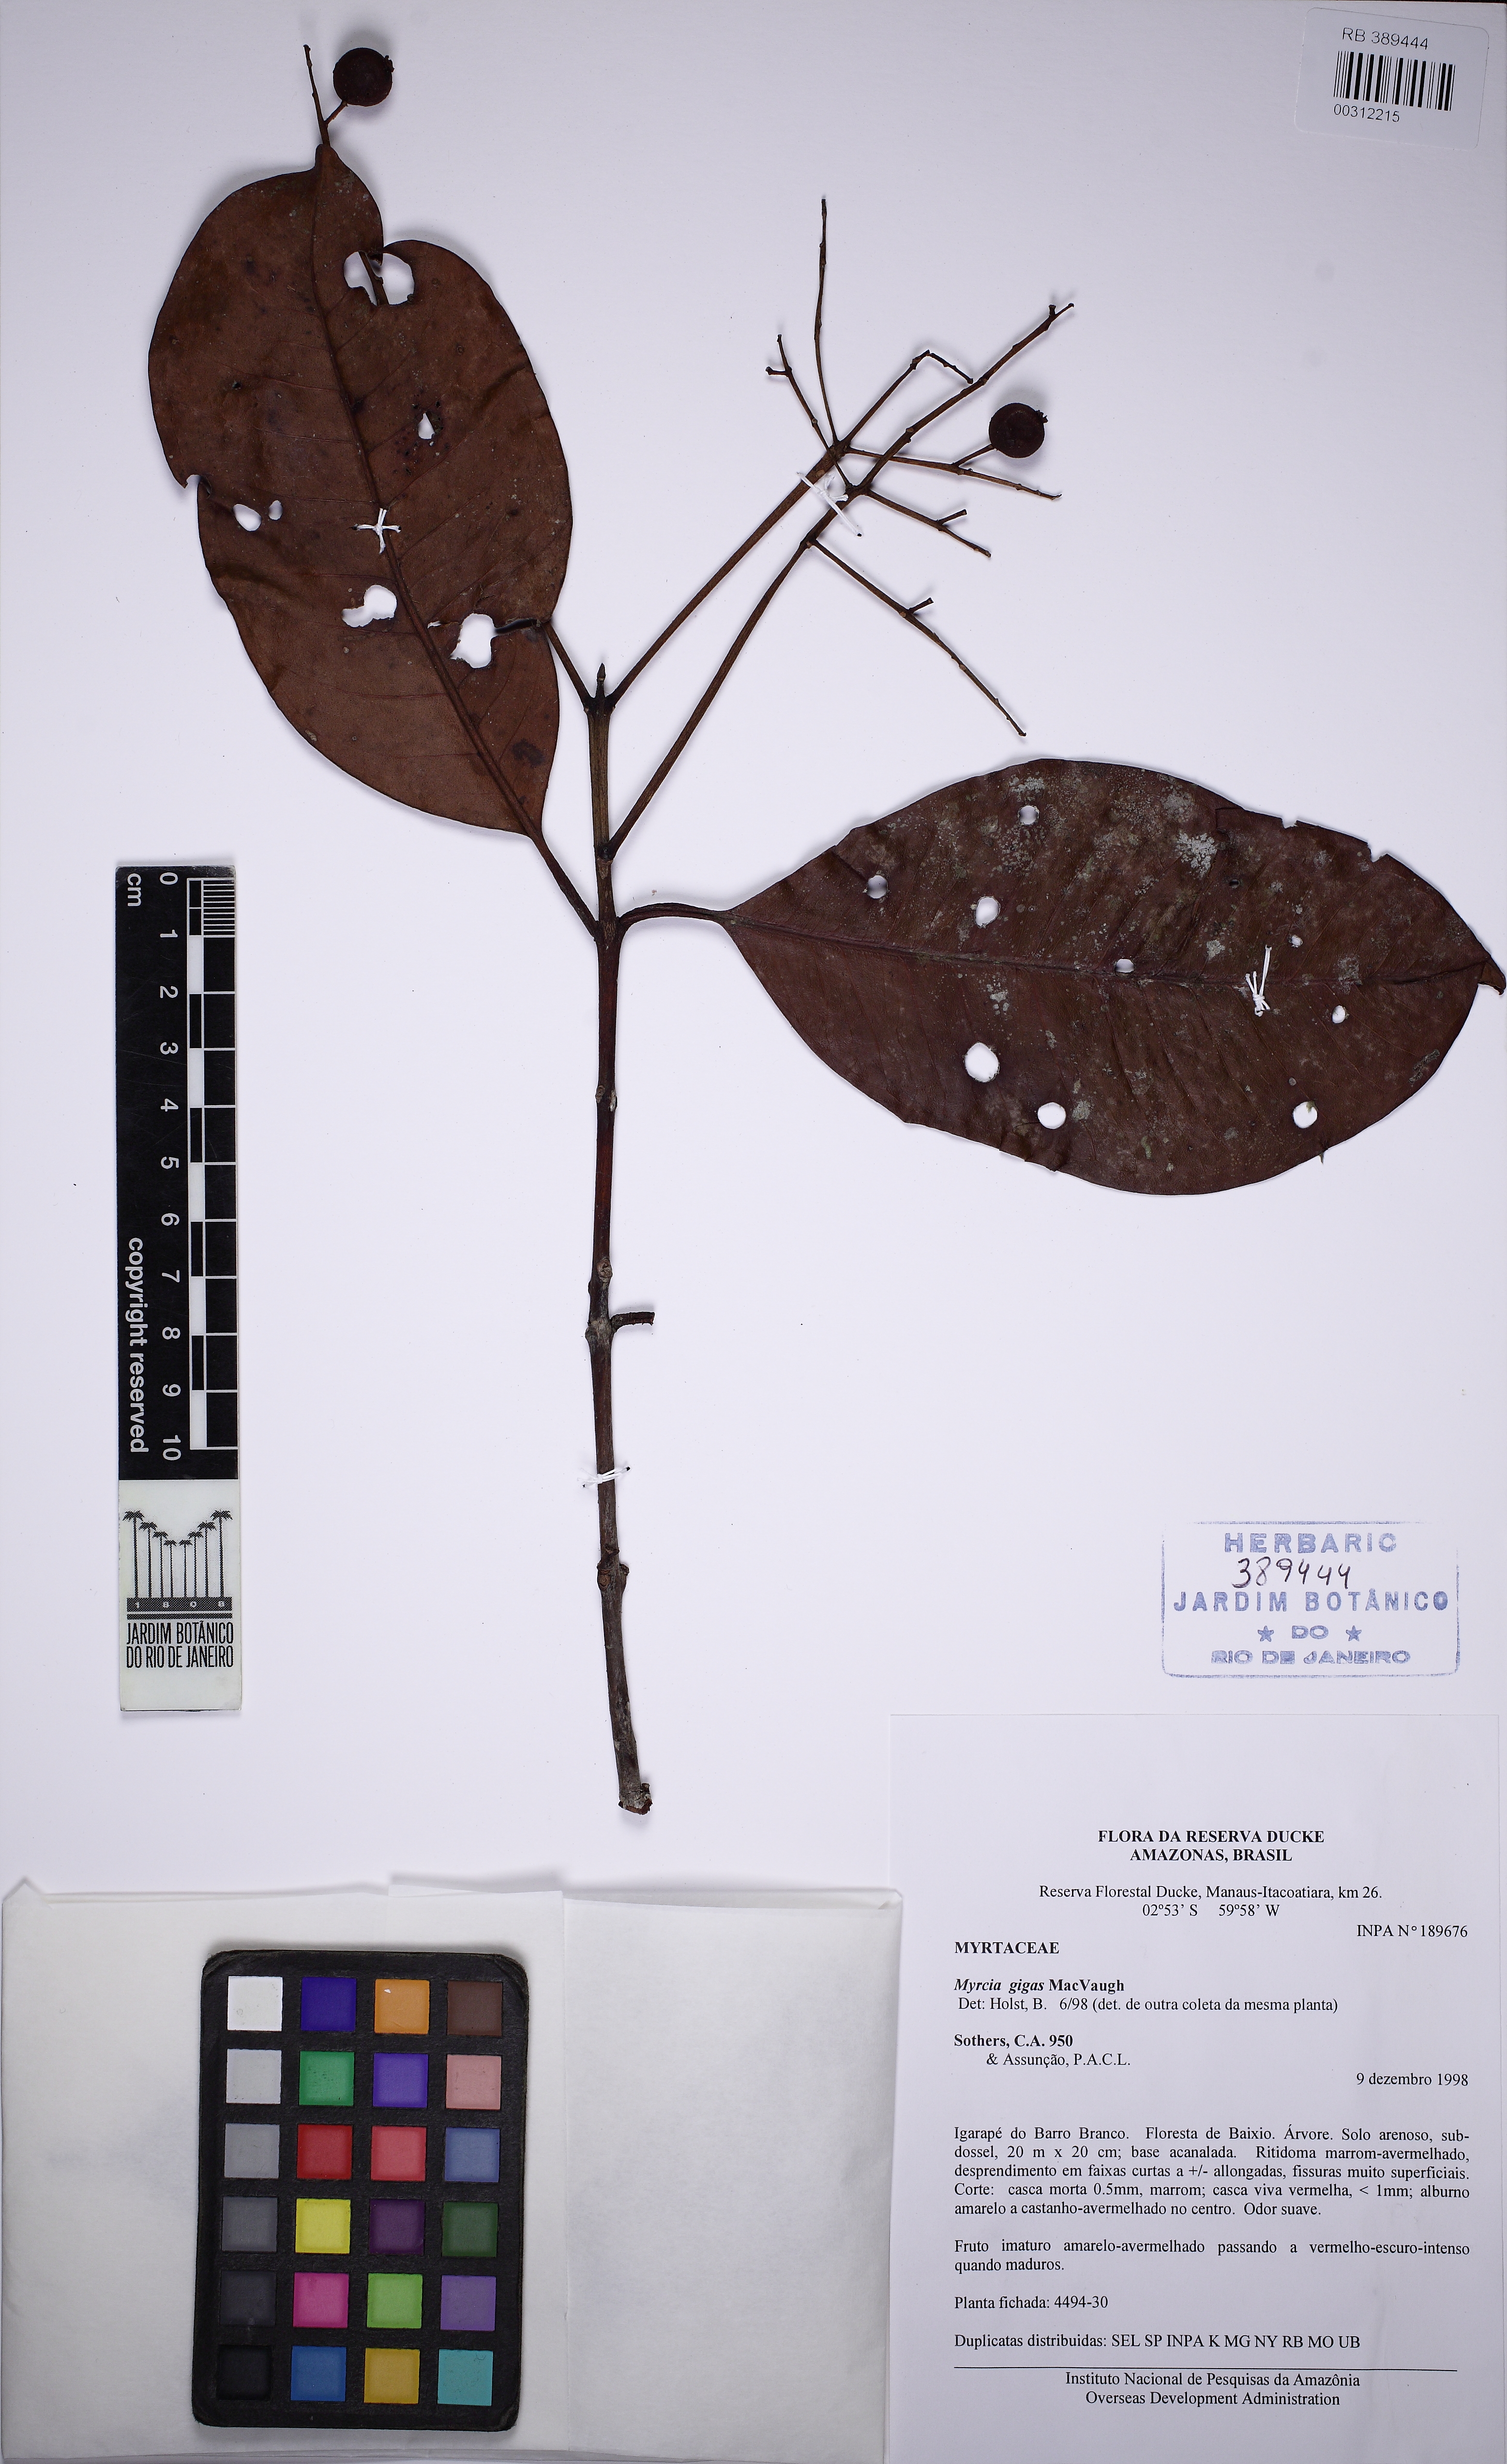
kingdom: Plantae
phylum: Tracheophyta
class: Magnoliopsida
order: Myrtales
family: Myrtaceae
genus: Myrcia
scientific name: Myrcia gigas
